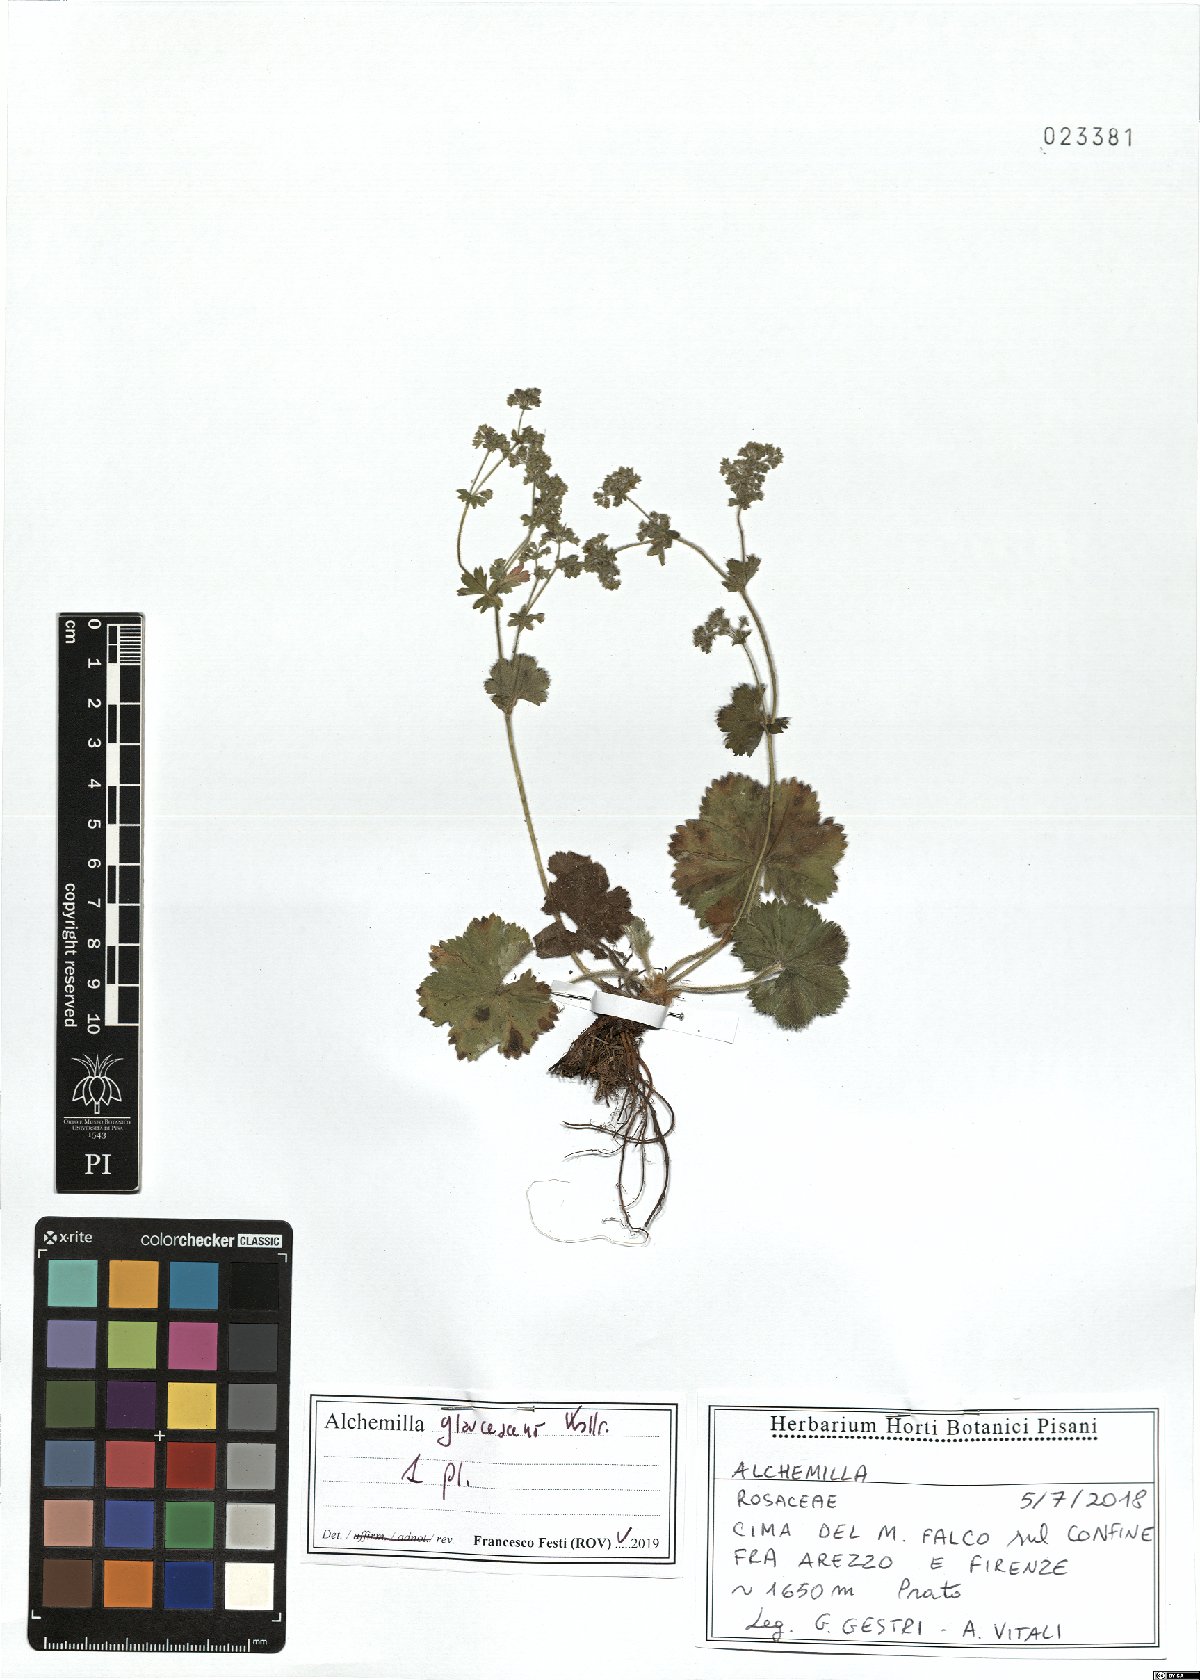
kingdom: Plantae
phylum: Tracheophyta
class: Magnoliopsida
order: Rosales
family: Rosaceae
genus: Alchemilla
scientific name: Alchemilla glaucescens
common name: Silky lady's mantle
